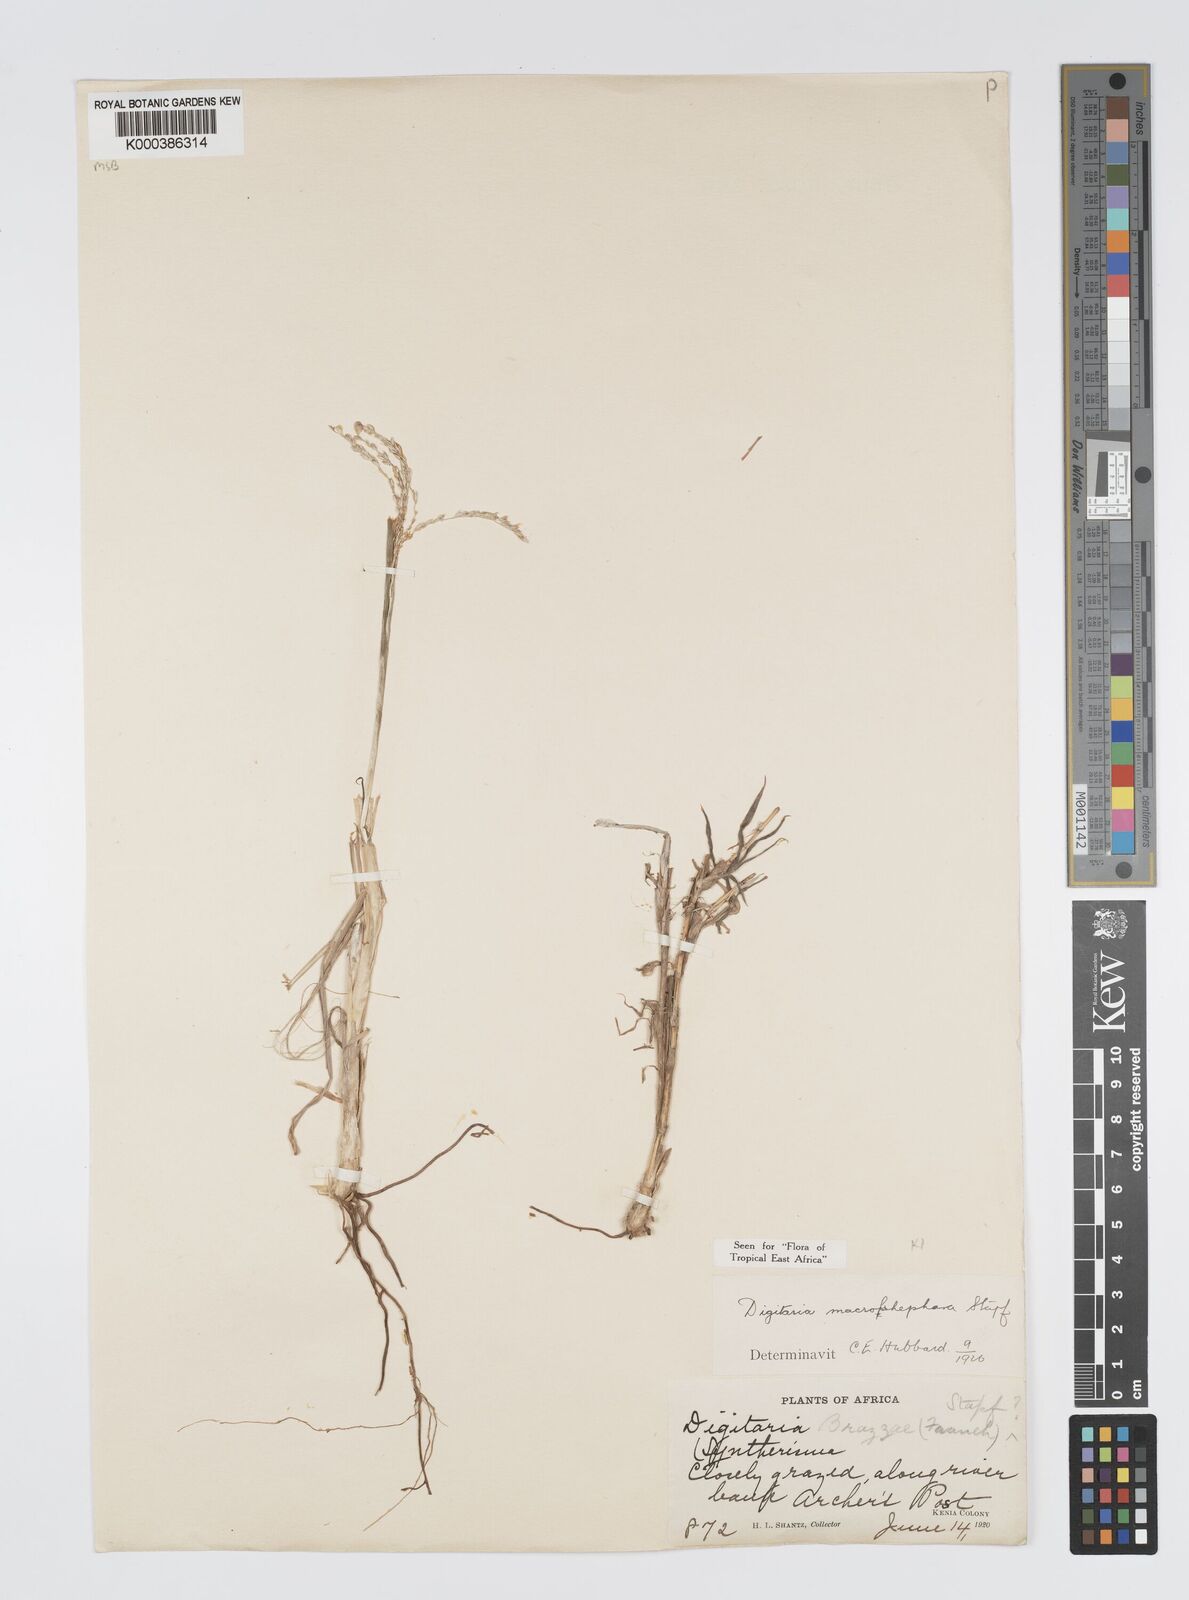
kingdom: Plantae
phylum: Tracheophyta
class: Liliopsida
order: Poales
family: Poaceae
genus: Digitaria
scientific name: Digitaria macroblephara
